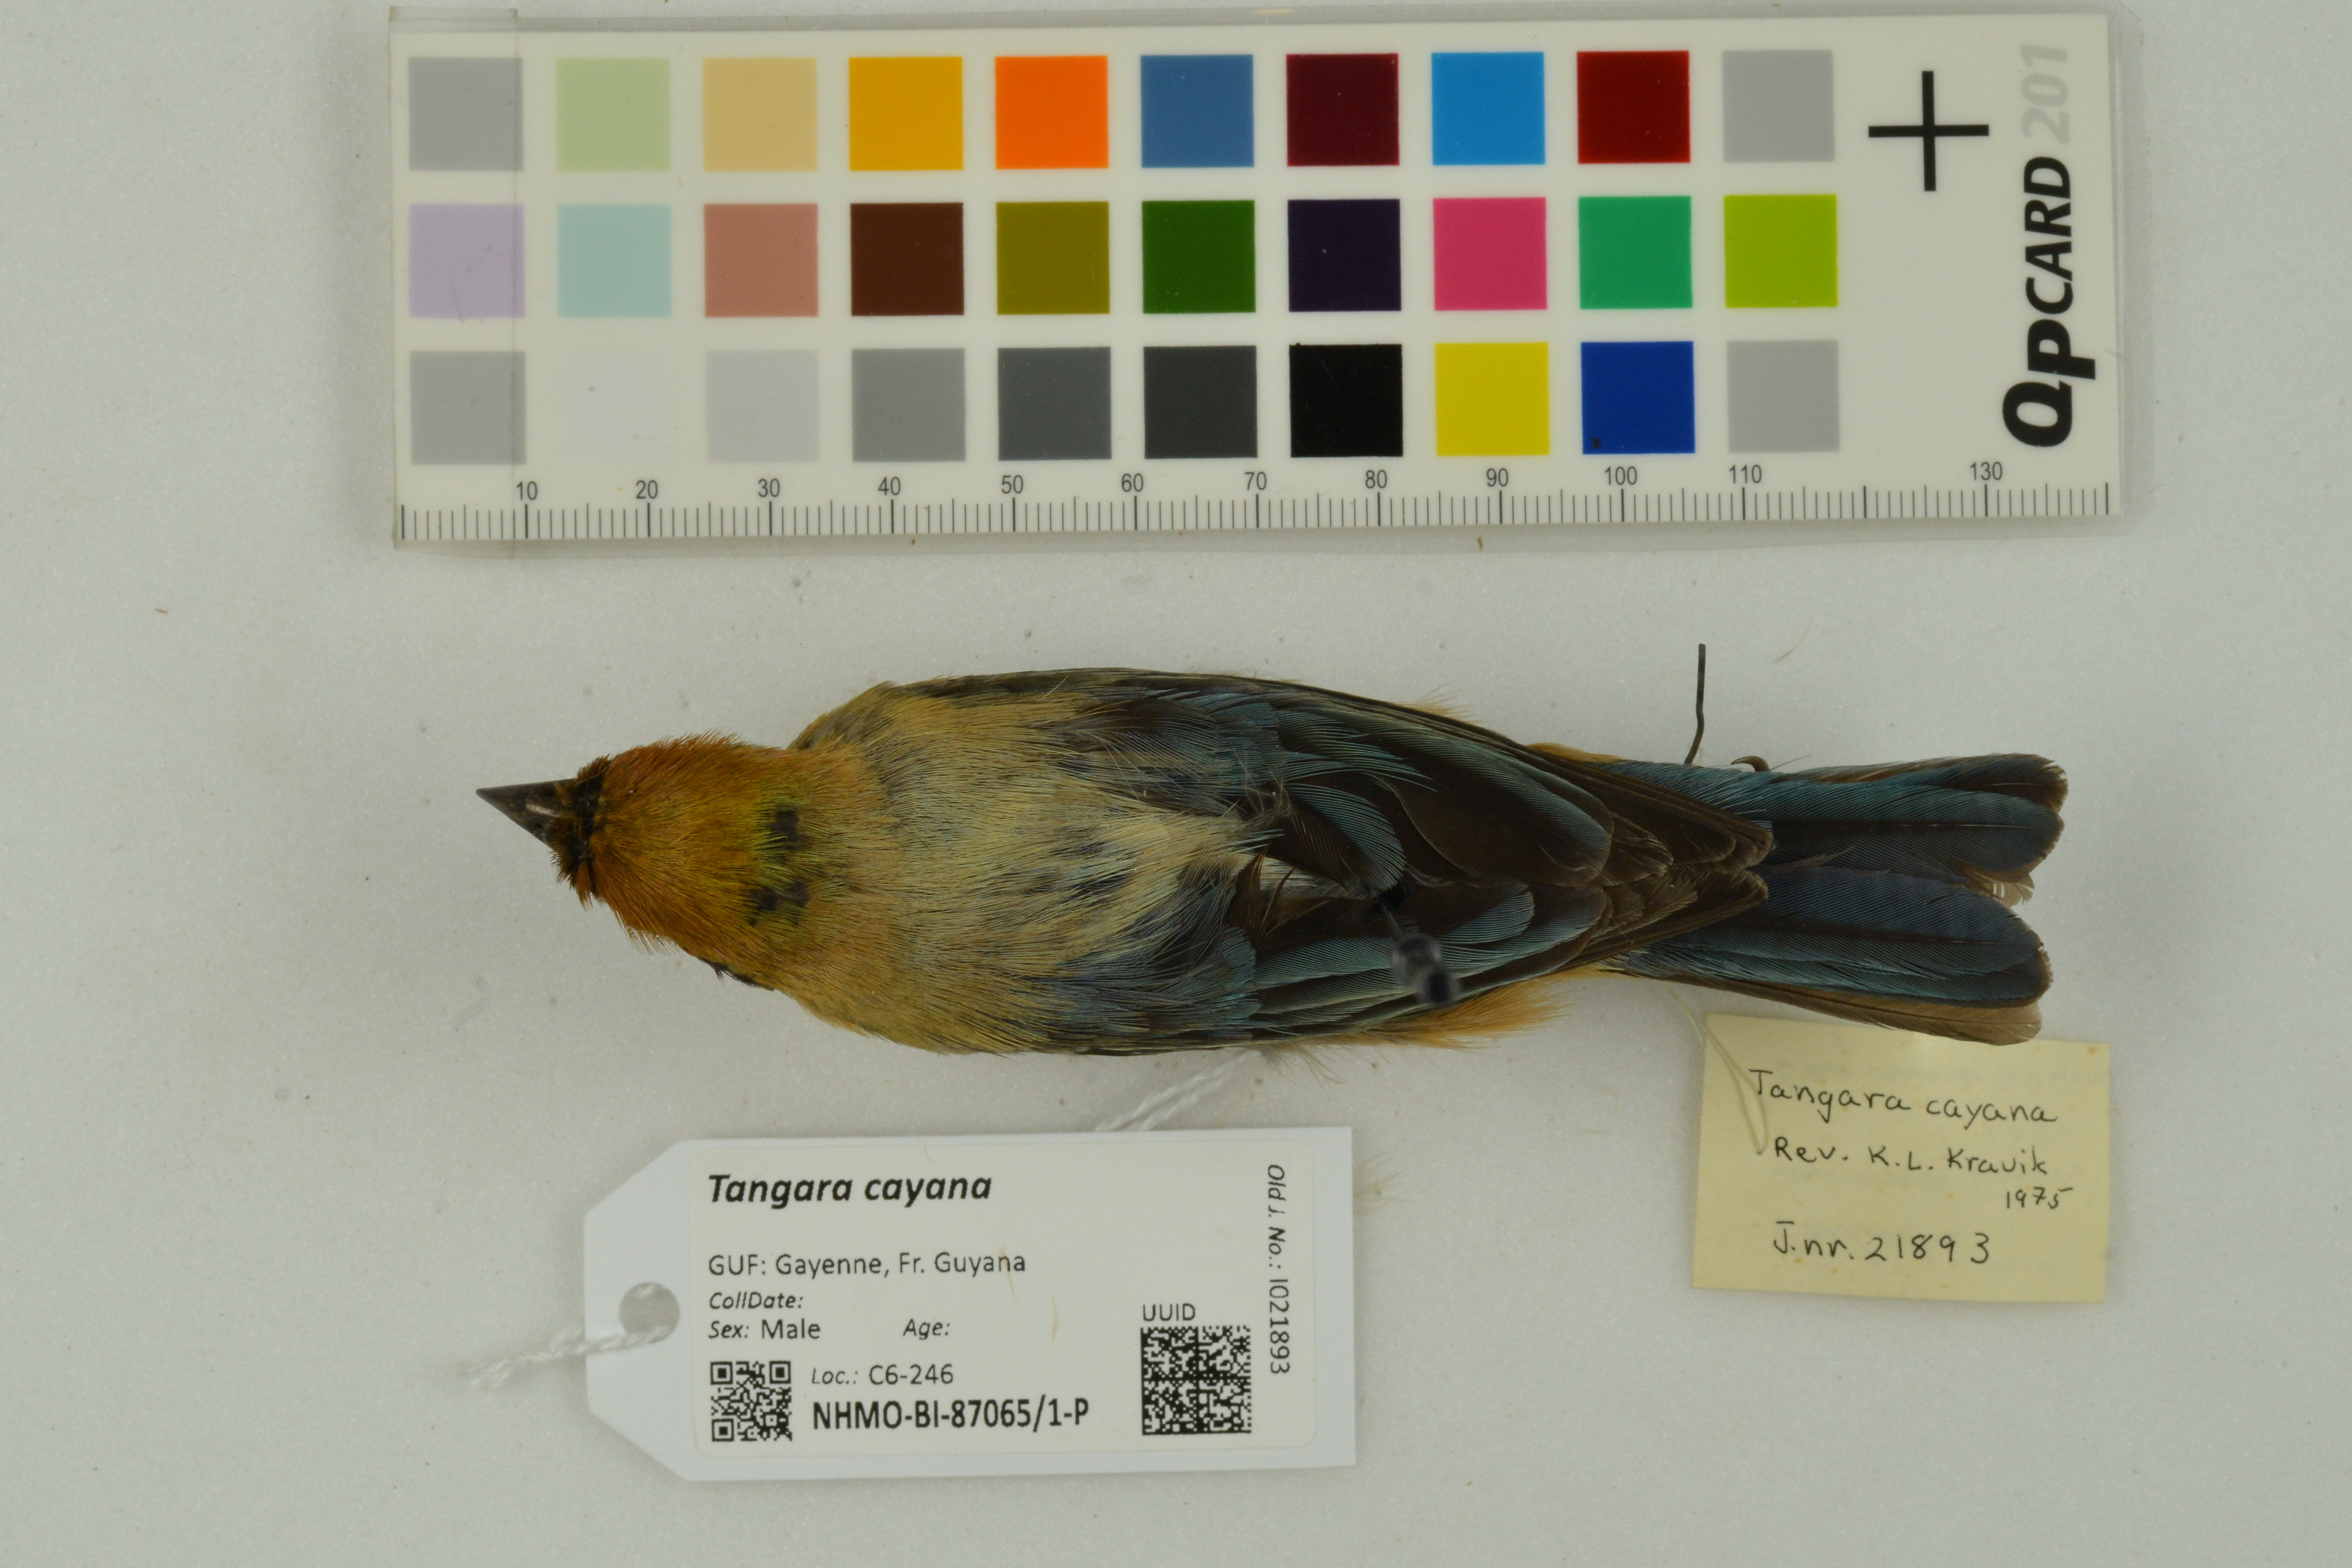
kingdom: Animalia
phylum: Chordata
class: Aves
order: Passeriformes
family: Thraupidae
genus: Stilpnia
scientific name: Stilpnia cayana
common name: Burnished-buff tanager
